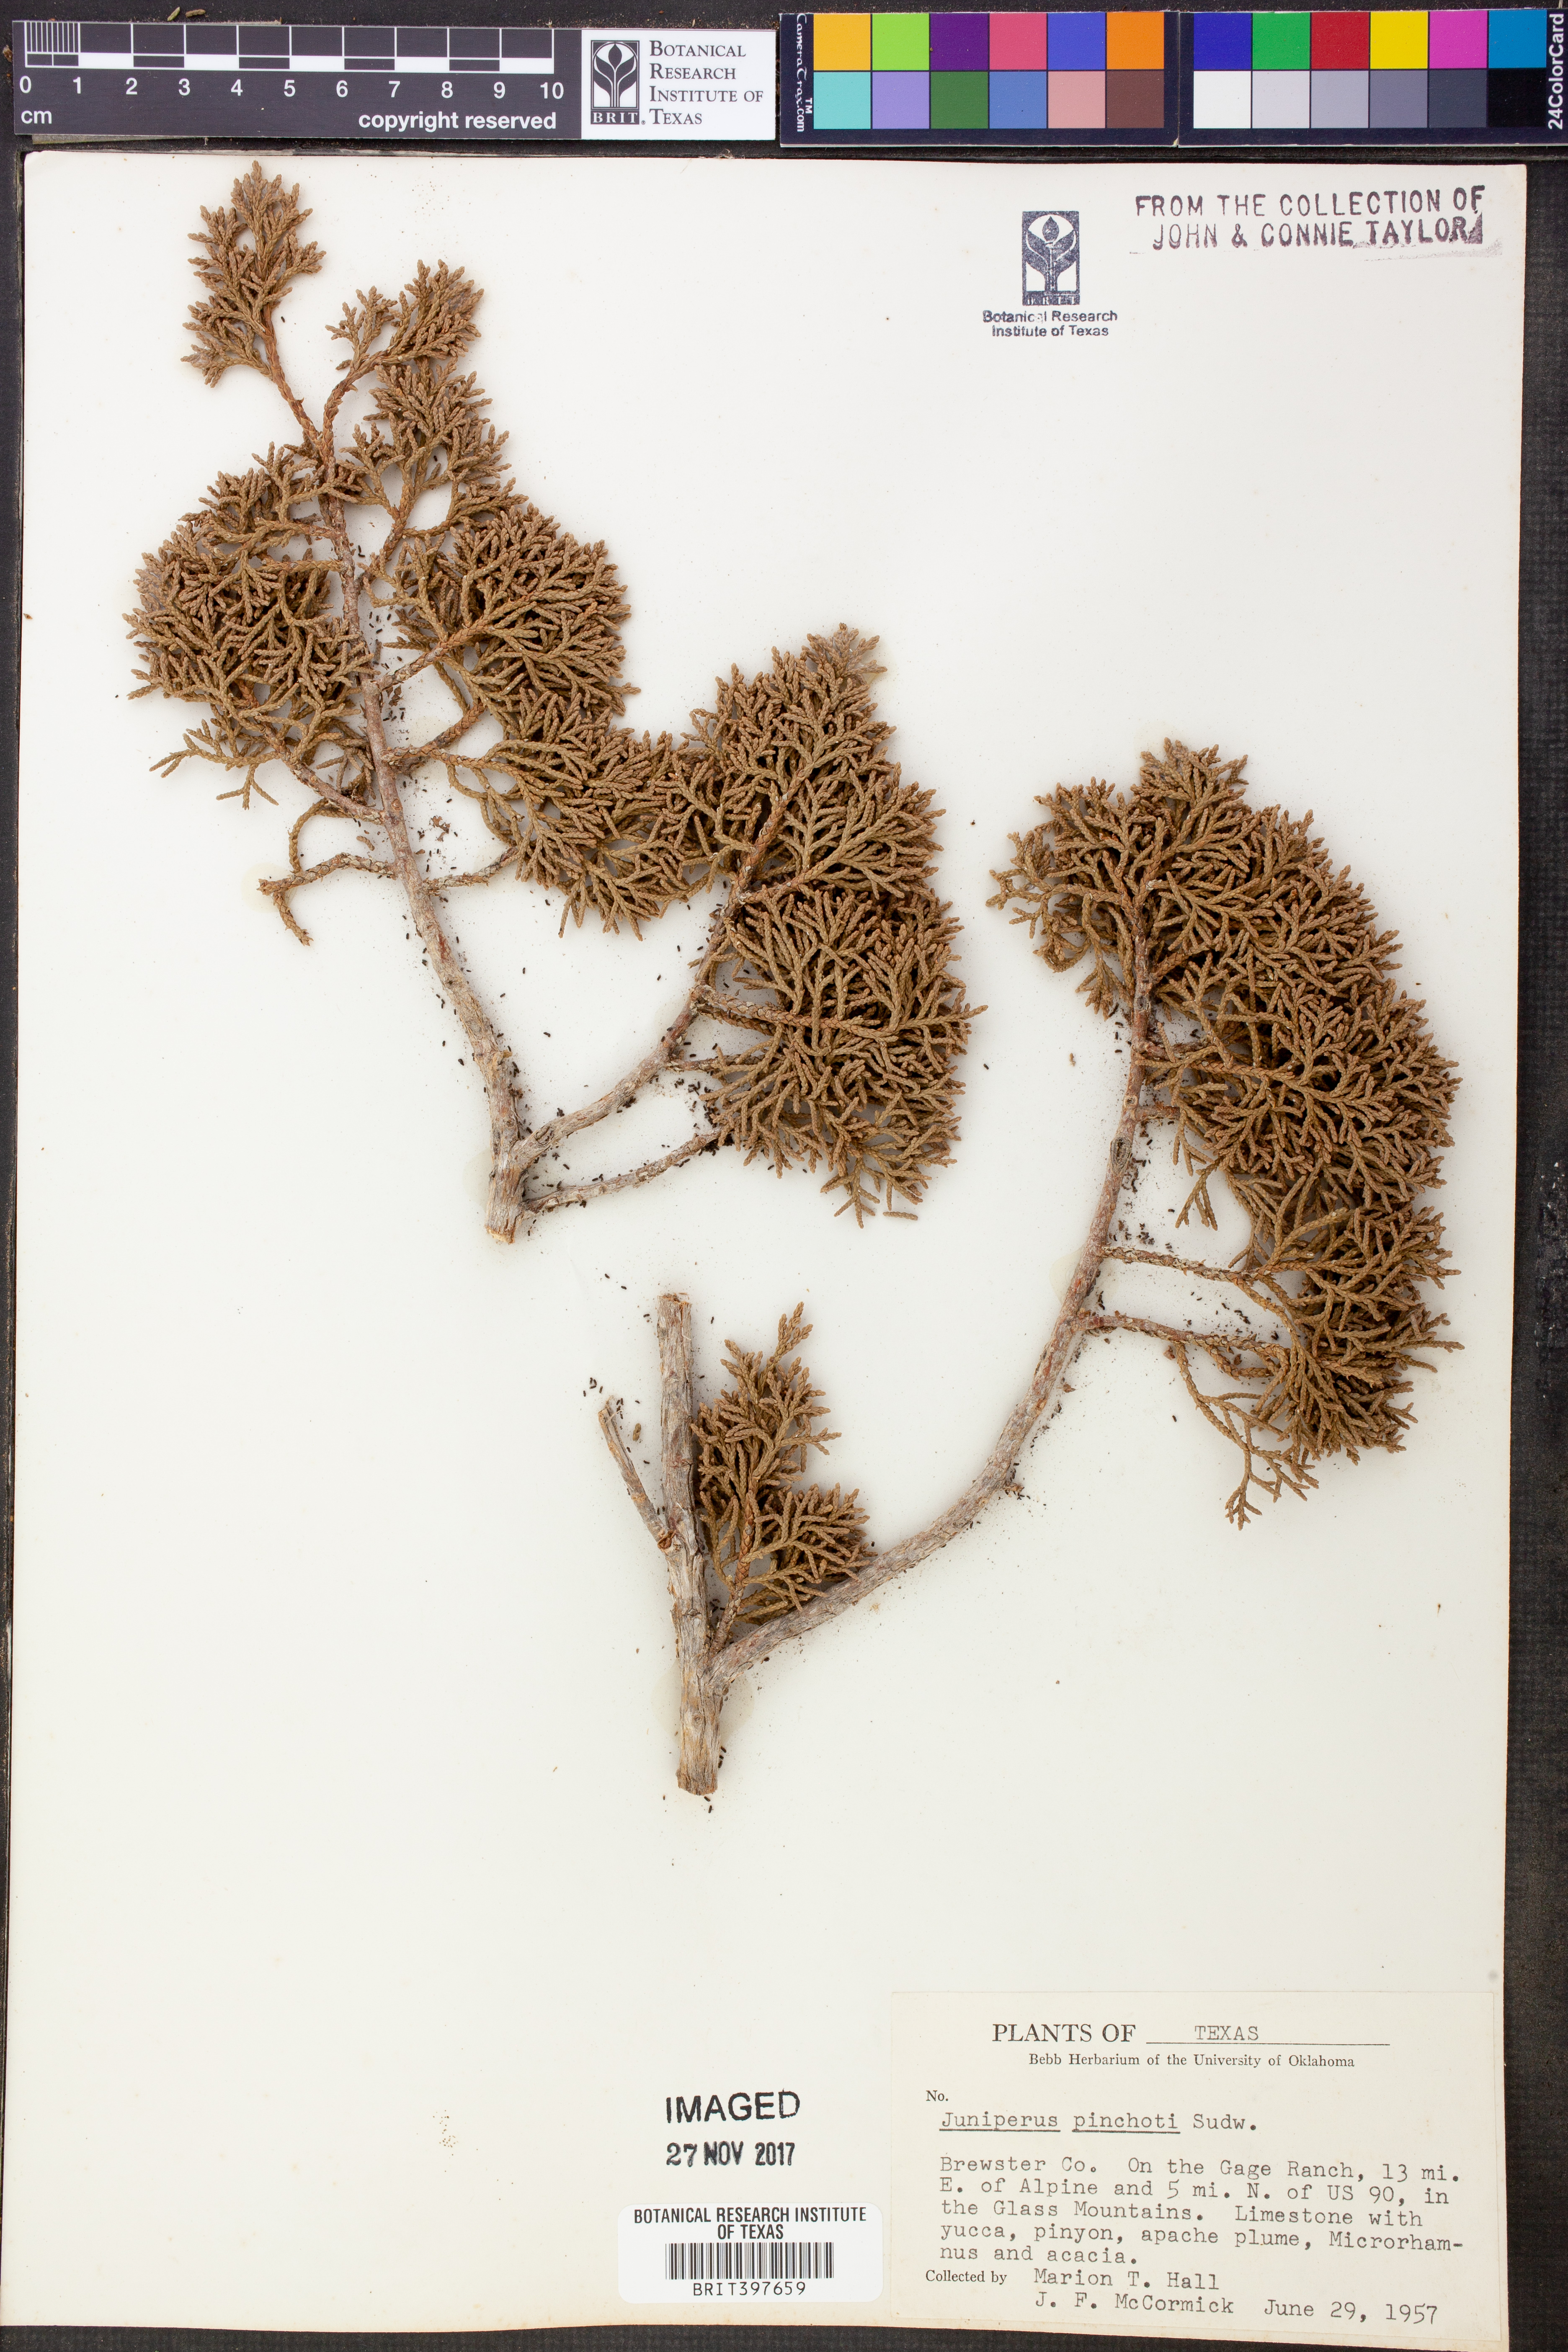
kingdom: Plantae
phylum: Tracheophyta
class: Pinopsida
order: Pinales
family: Cupressaceae
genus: Juniperus
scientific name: Juniperus pinchotii
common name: Pinchot juniper
